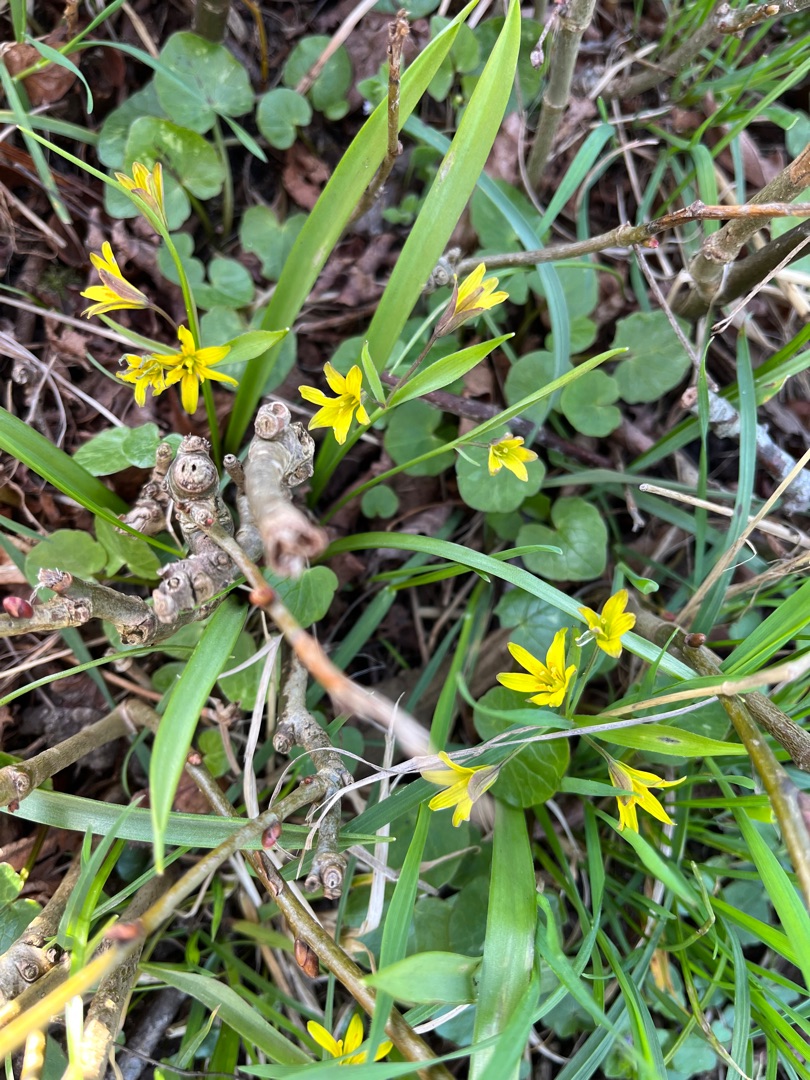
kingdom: Plantae
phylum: Tracheophyta
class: Liliopsida
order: Liliales
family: Liliaceae
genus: Gagea
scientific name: Gagea lutea
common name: Almindelig guldstjerne
